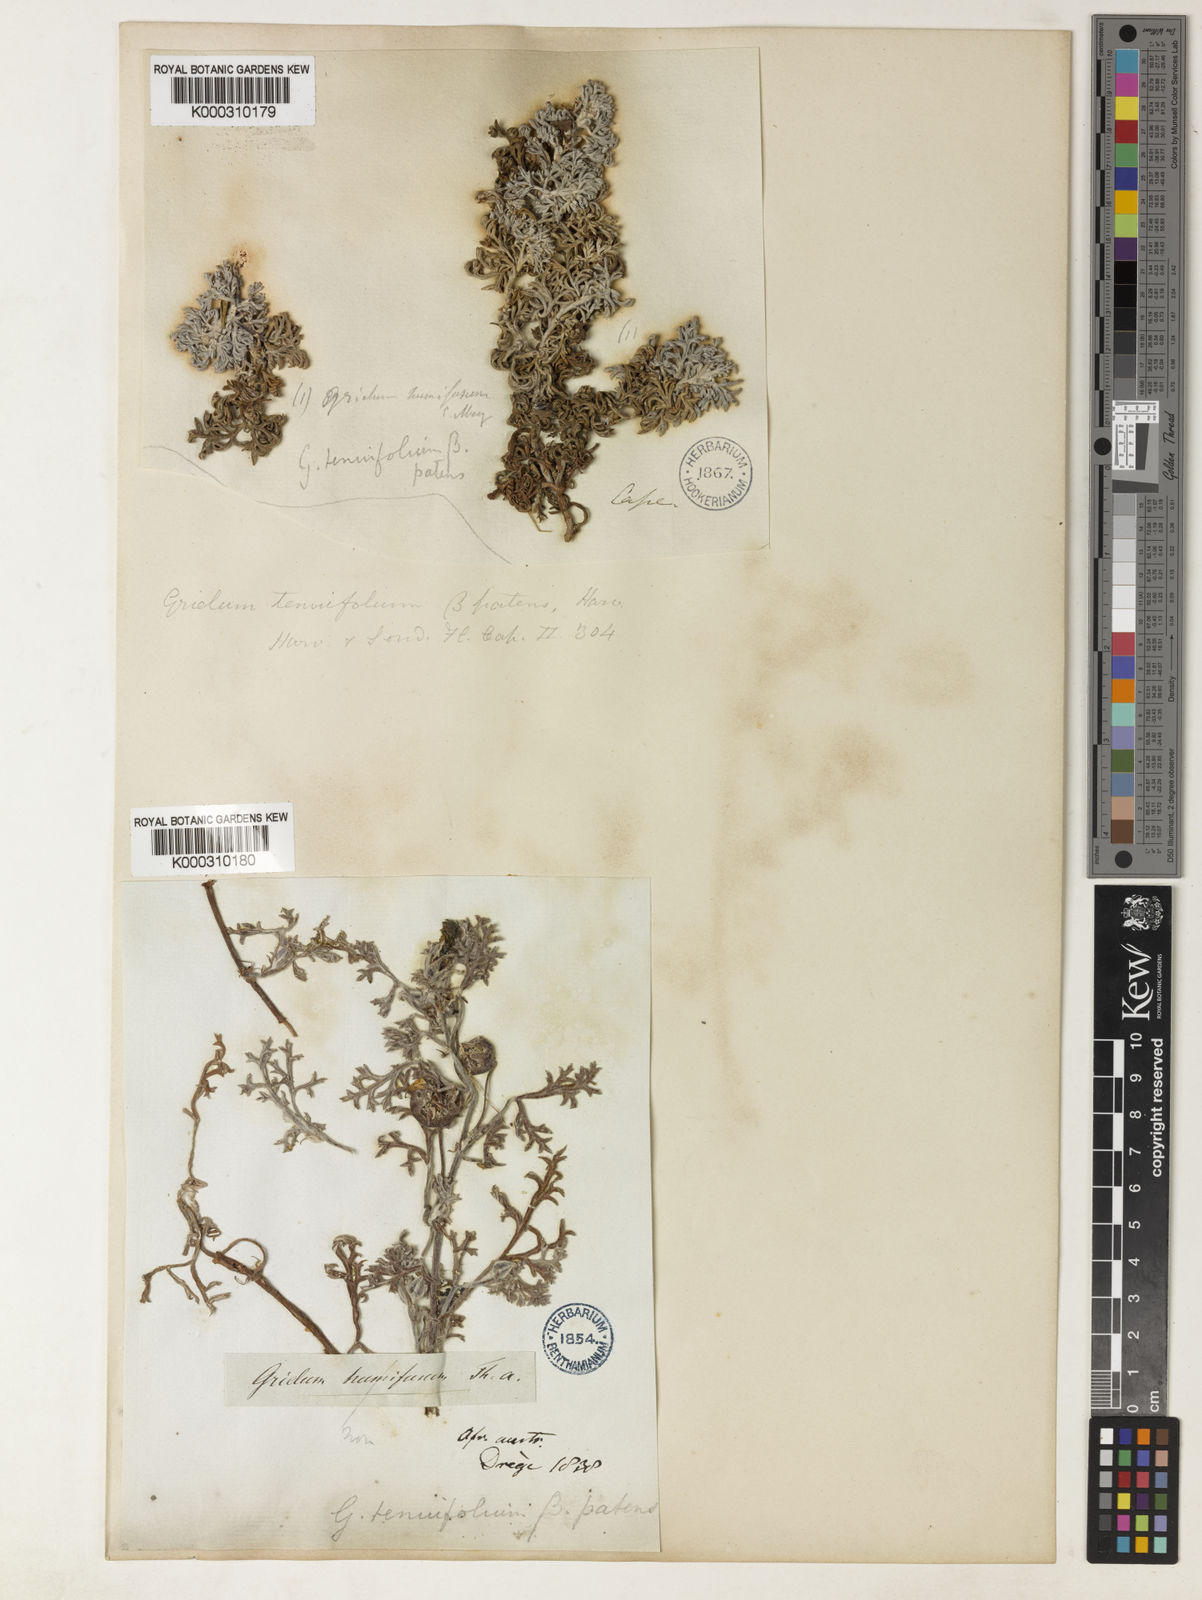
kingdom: Plantae
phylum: Tracheophyta
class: Magnoliopsida
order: Malvales
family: Neuradaceae
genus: Grielum
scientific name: Grielum grandiflorum
